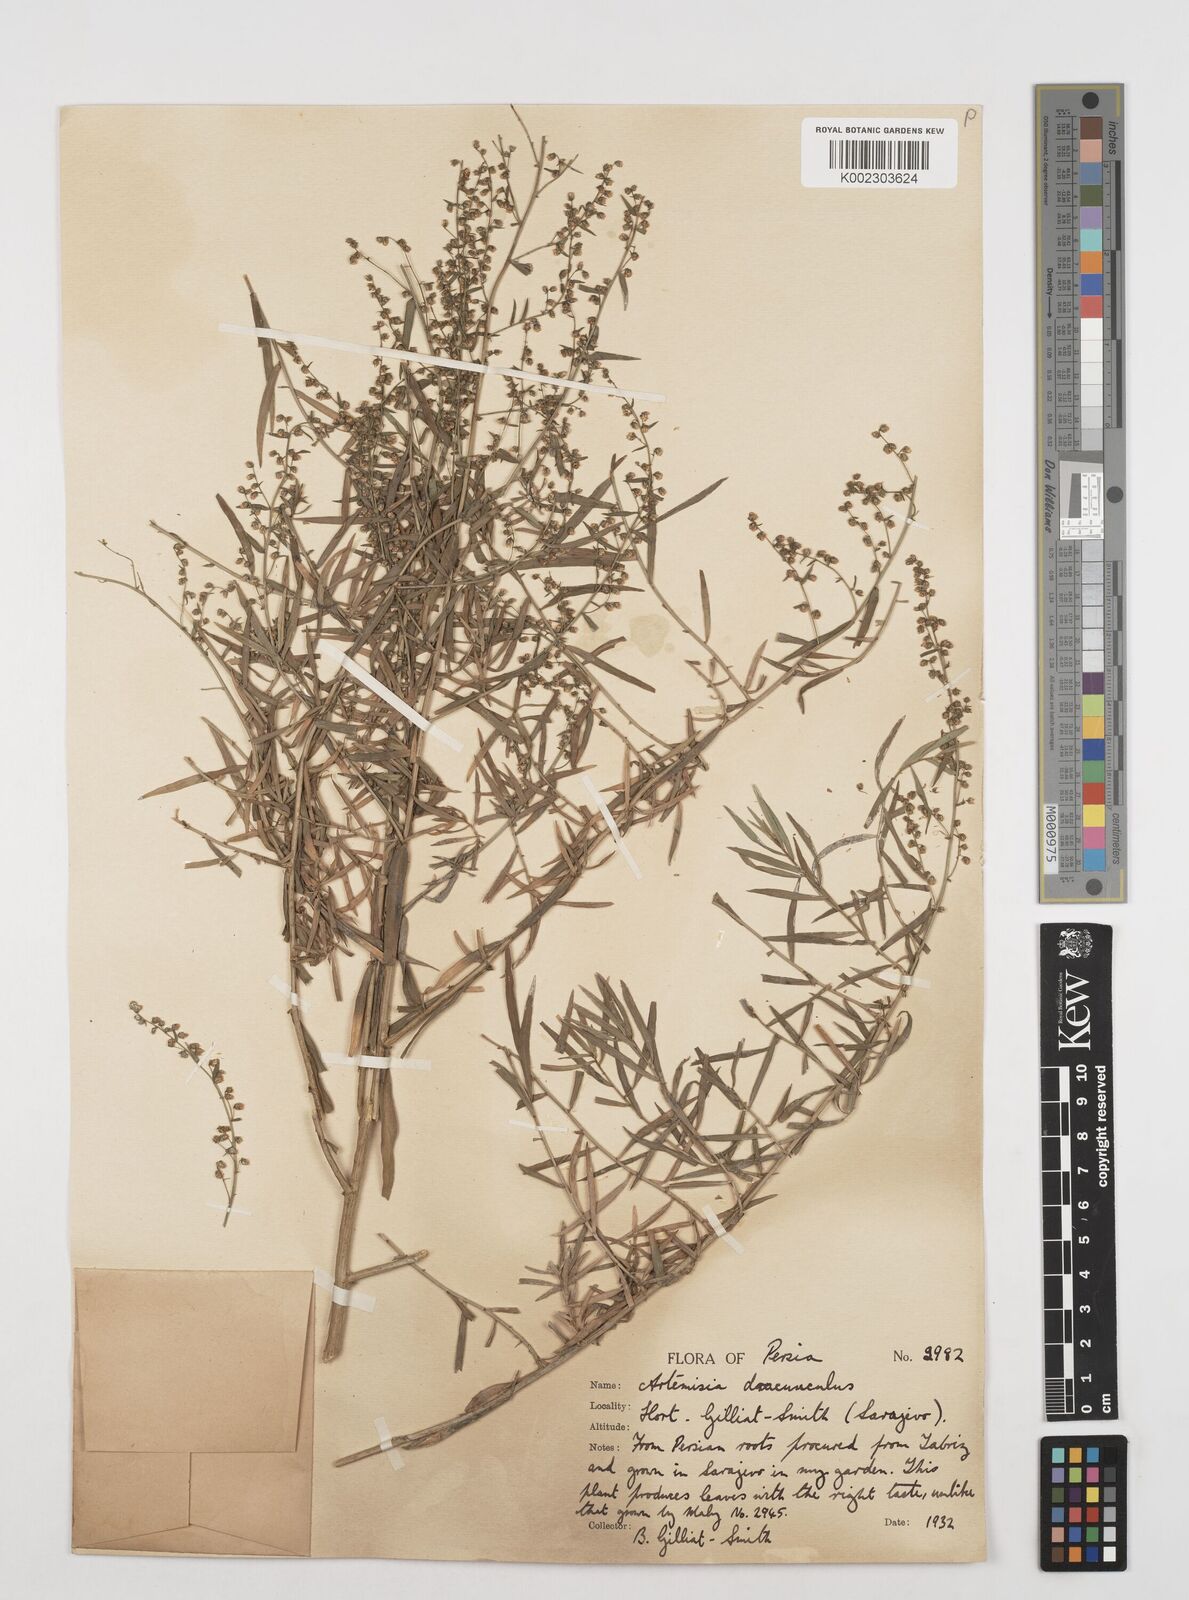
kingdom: Plantae
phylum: Tracheophyta
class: Magnoliopsida
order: Asterales
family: Asteraceae
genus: Artemisia
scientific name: Artemisia dracunculus
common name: Tarragon
